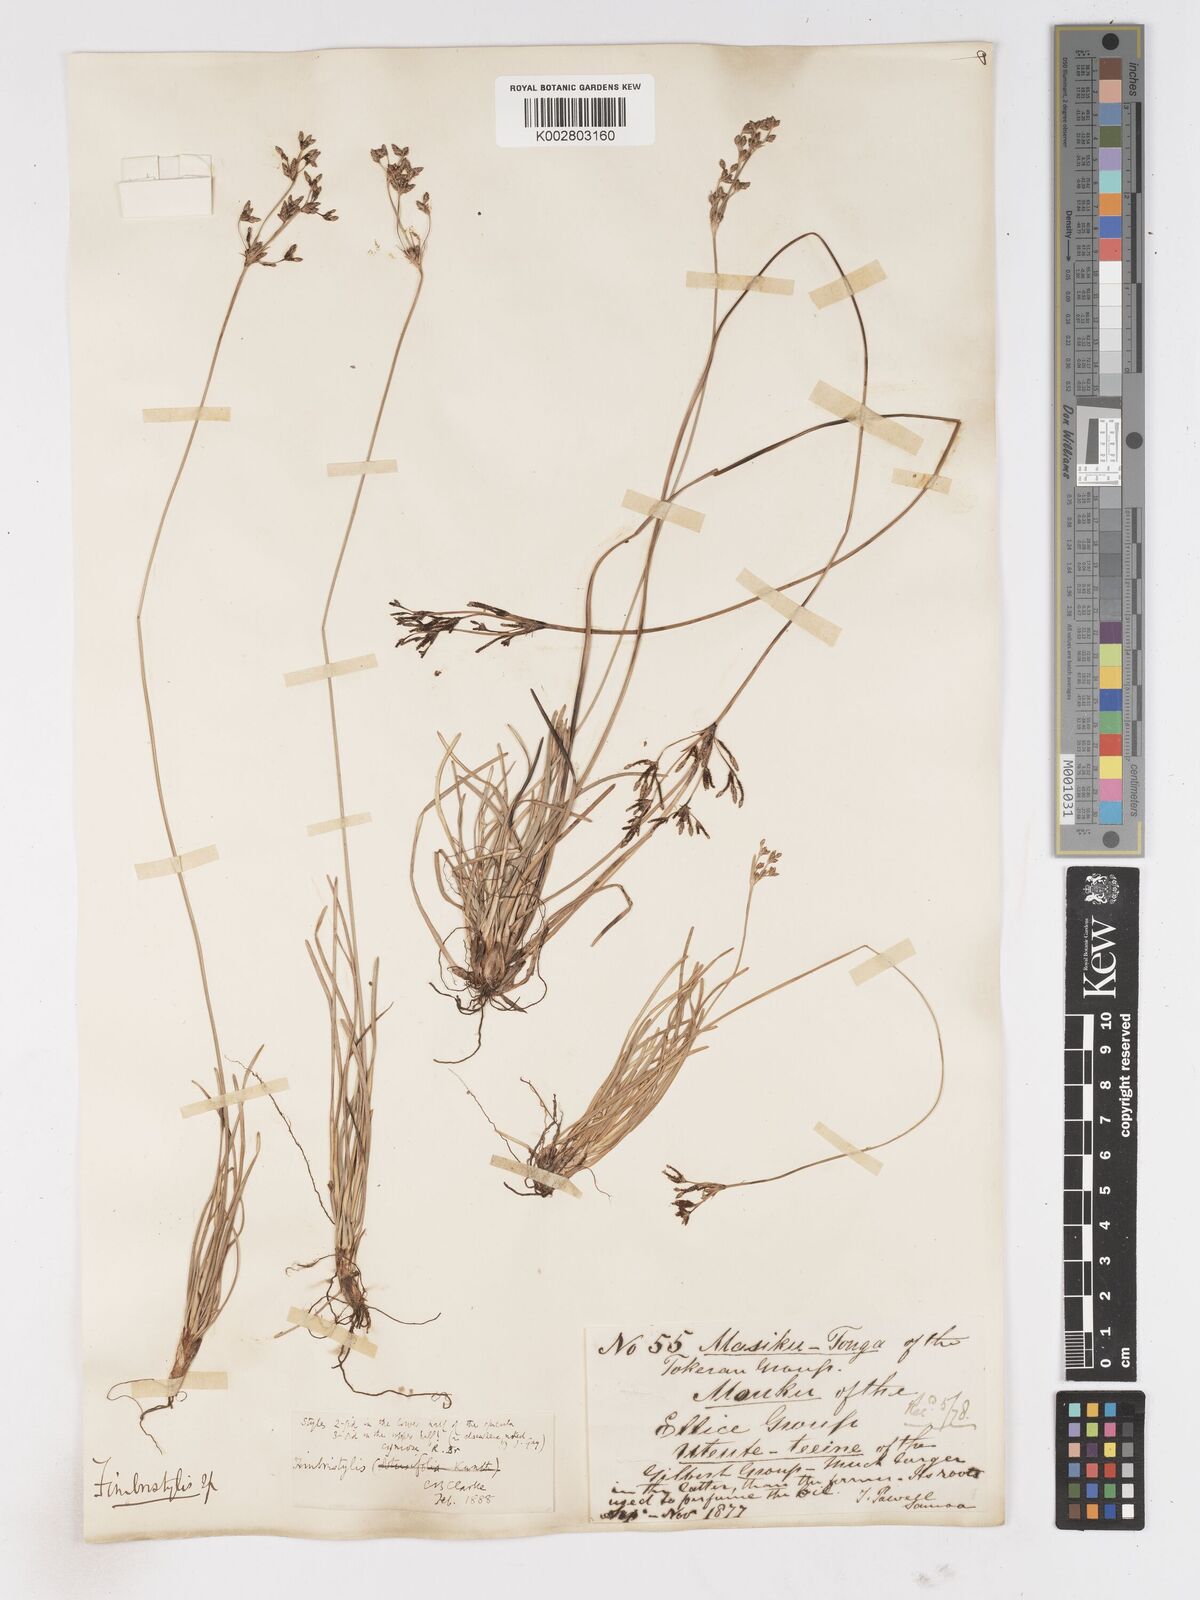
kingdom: Plantae
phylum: Tracheophyta
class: Liliopsida
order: Poales
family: Cyperaceae
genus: Fimbristylis
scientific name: Fimbristylis cymosa
